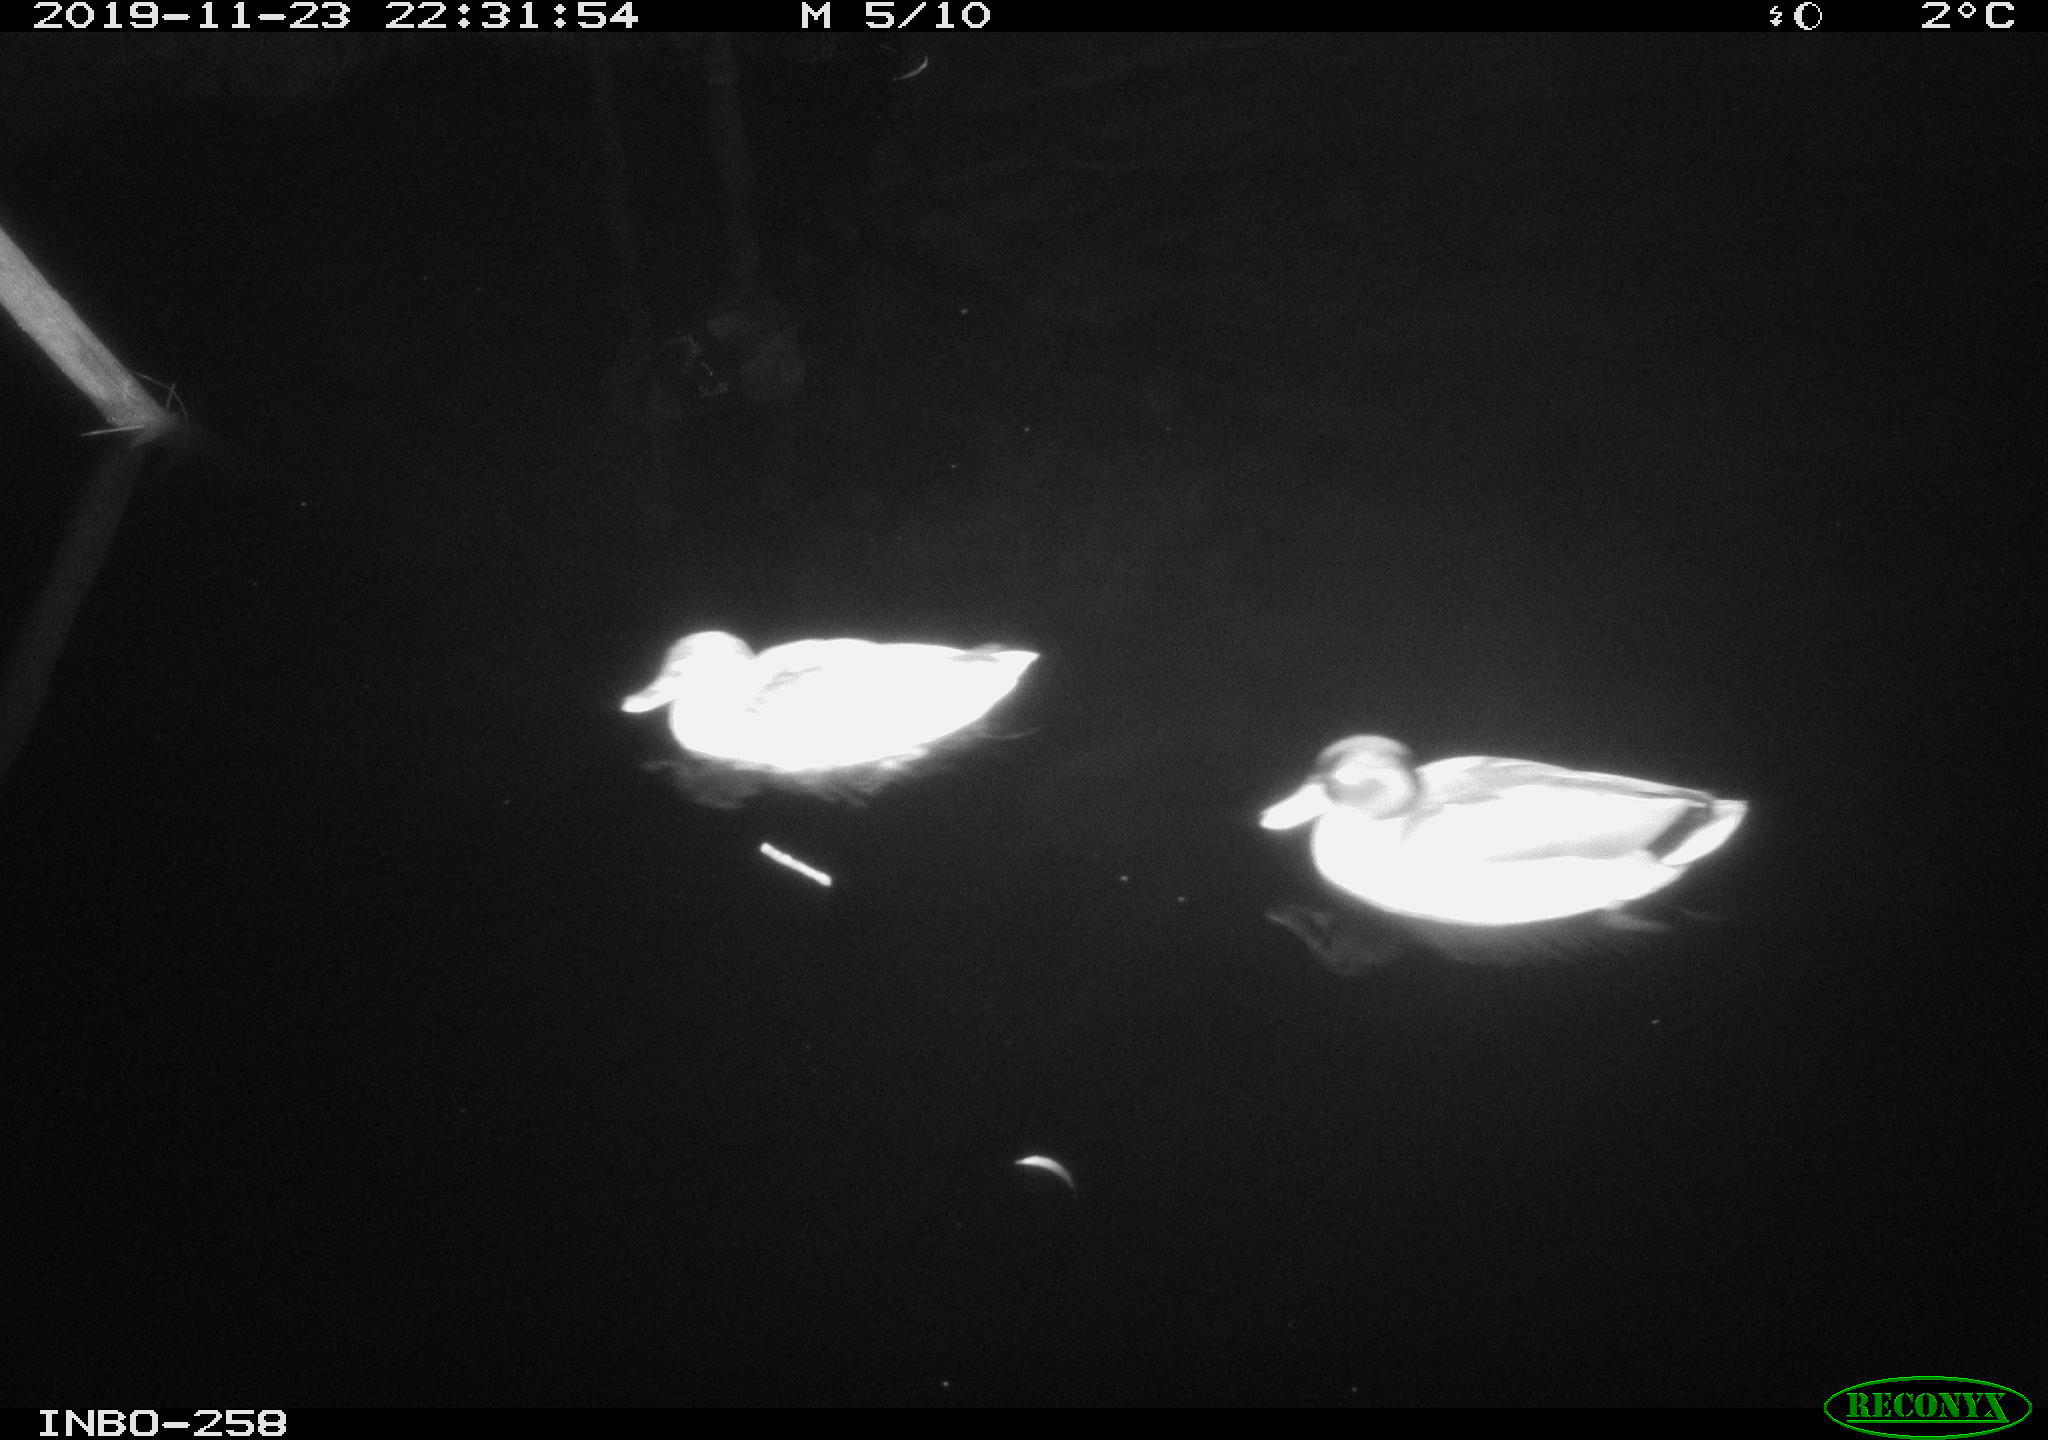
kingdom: Animalia
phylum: Chordata
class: Aves
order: Anseriformes
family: Anatidae
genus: Anas
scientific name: Anas platyrhynchos
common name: Mallard
